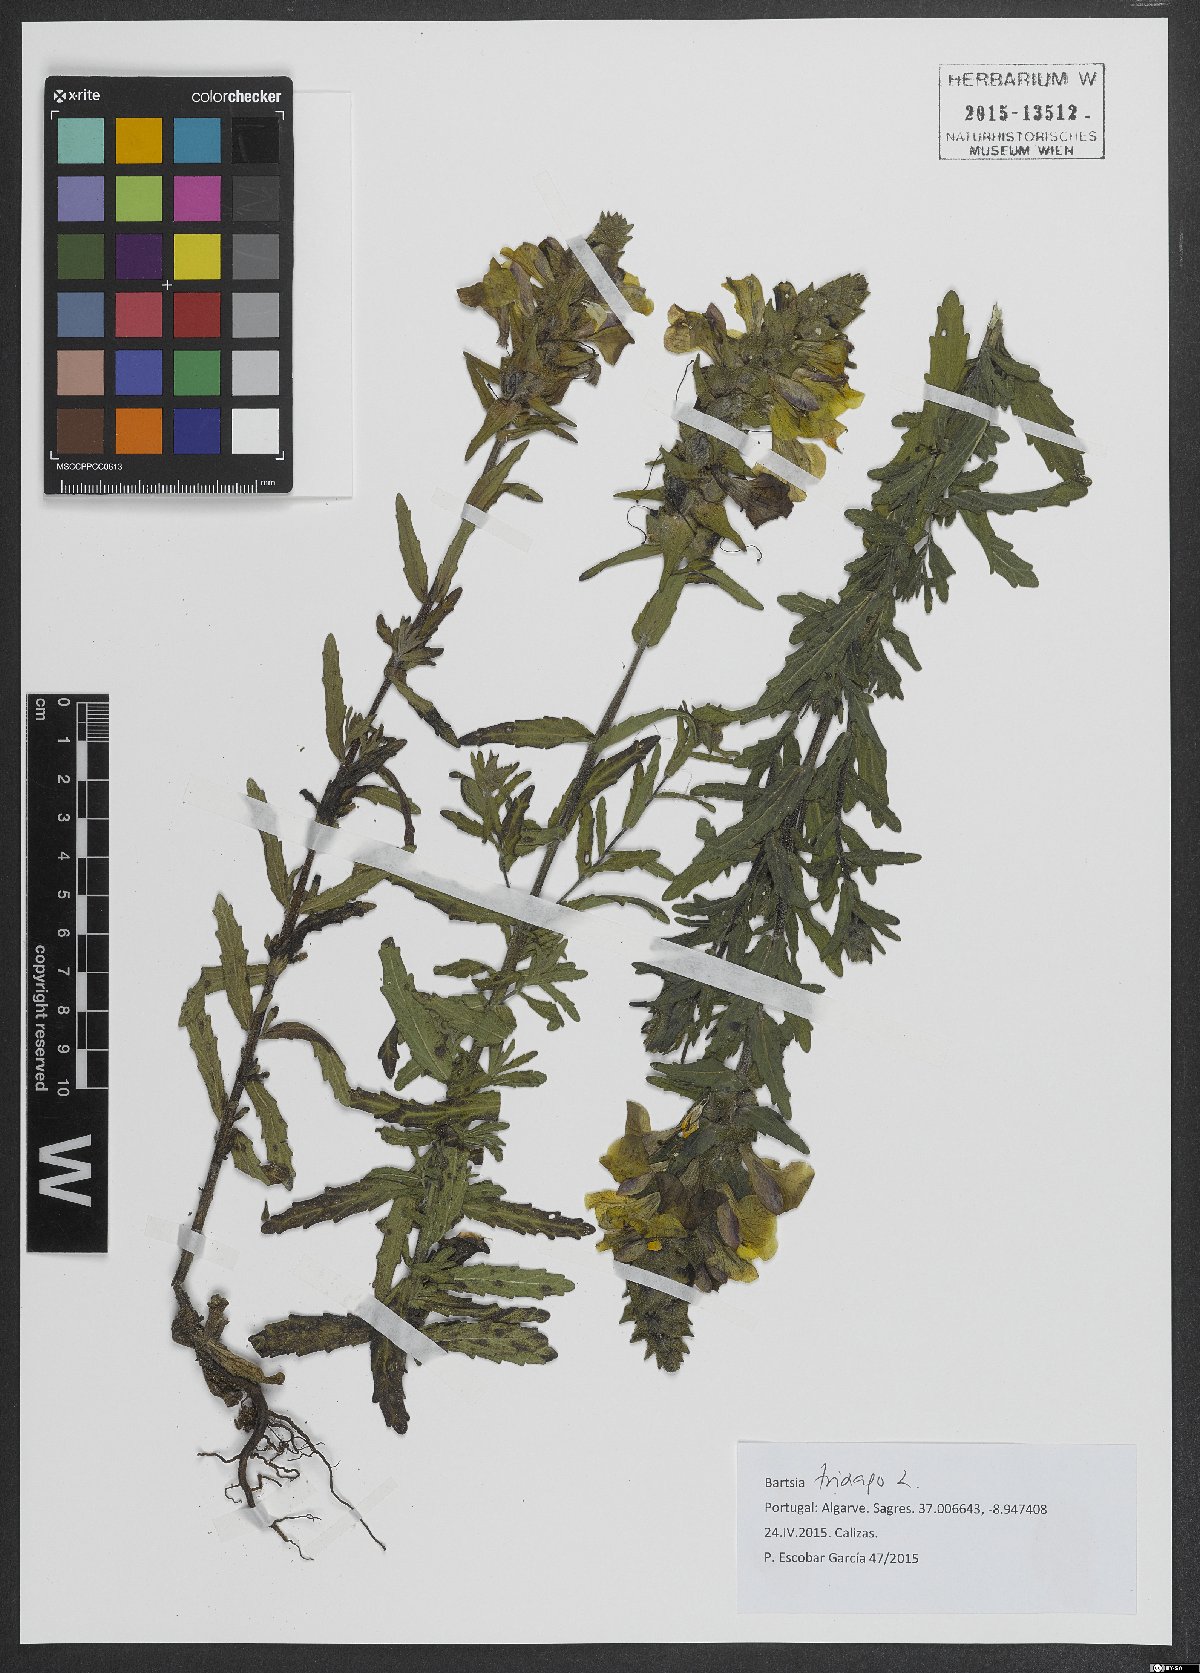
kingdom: Plantae
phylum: Tracheophyta
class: Magnoliopsida
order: Lamiales
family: Orobanchaceae
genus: Bellardia
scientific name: Bellardia trixago
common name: Mediterranean lineseed
